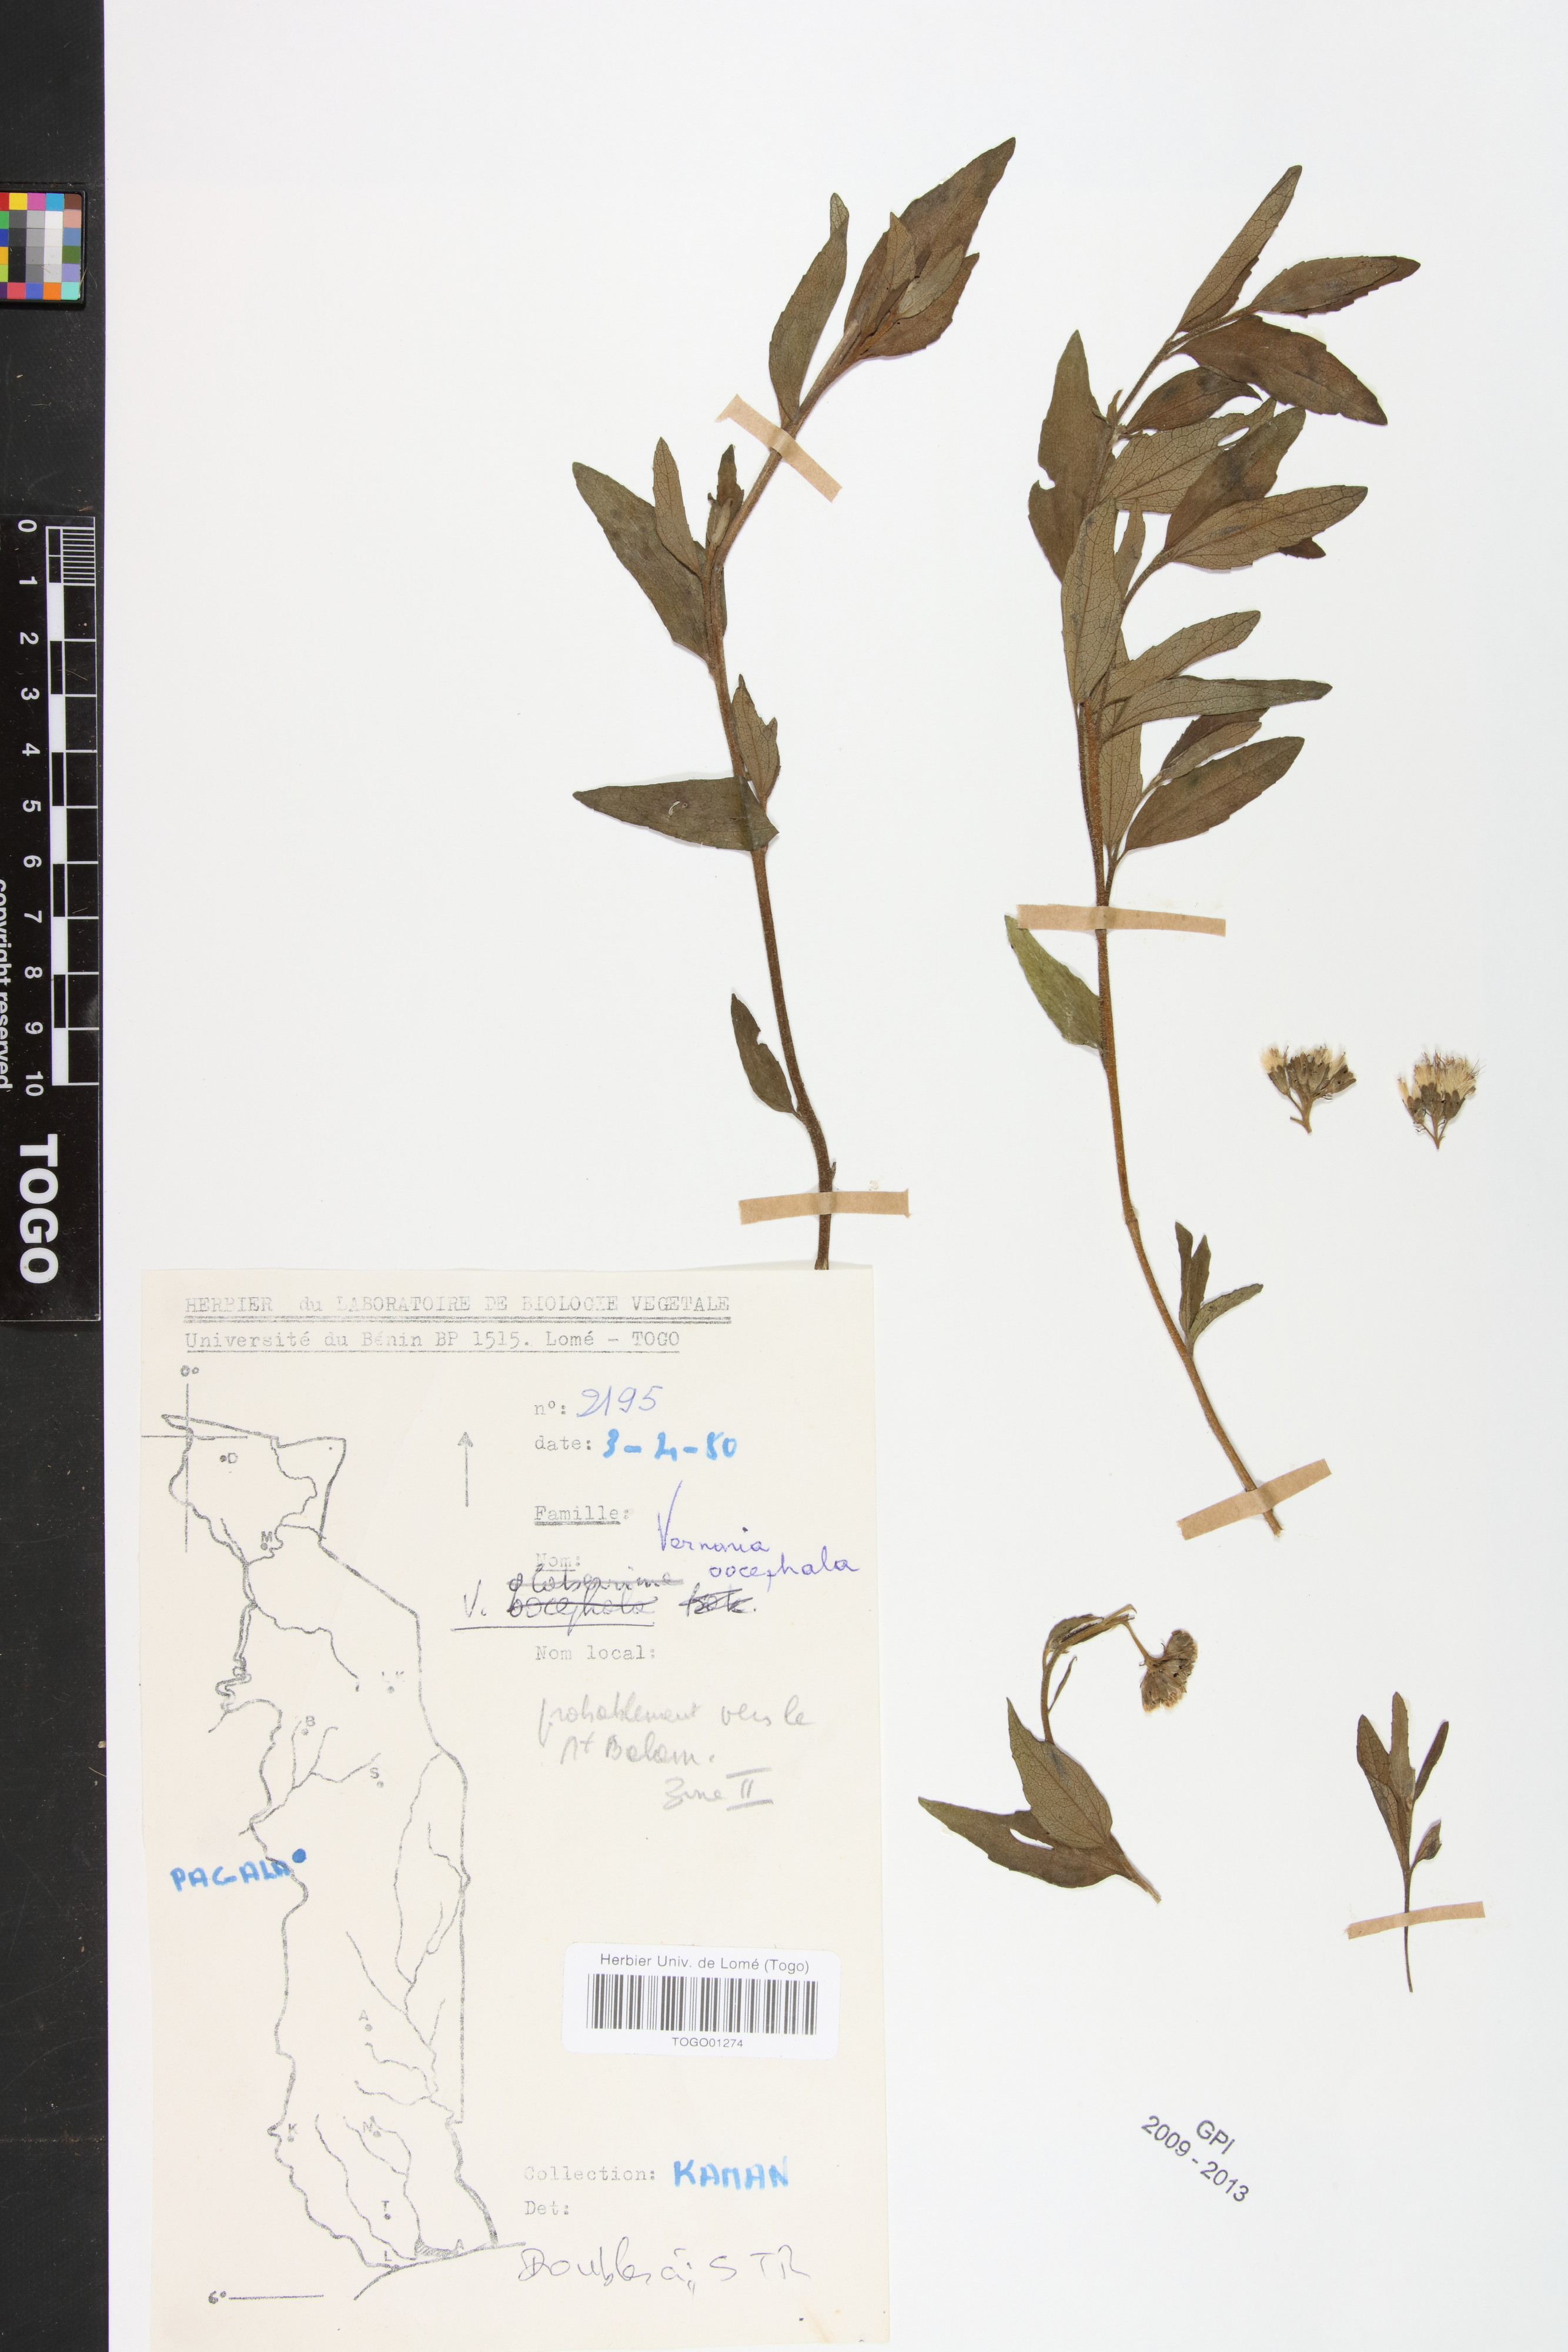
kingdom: Plantae
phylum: Tracheophyta
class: Magnoliopsida
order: Asterales
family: Asteraceae
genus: Oocephala
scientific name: Oocephala stenocephala
